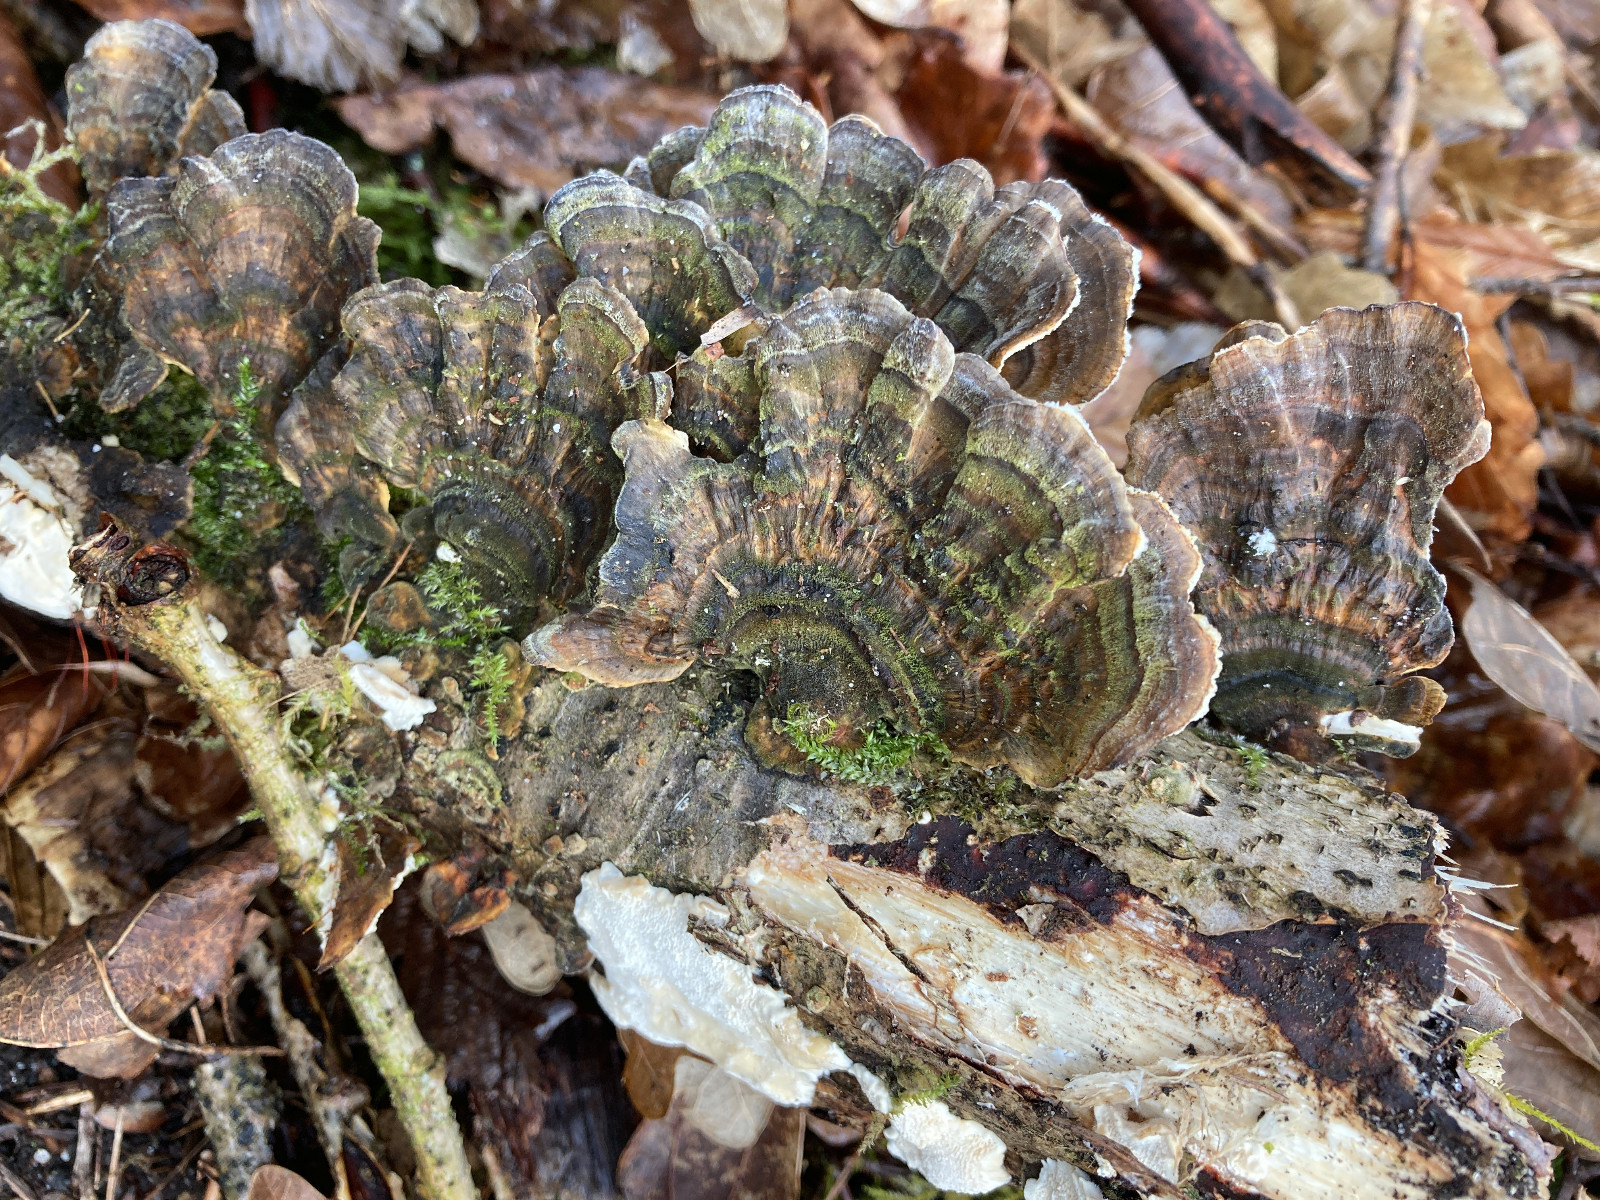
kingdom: Fungi
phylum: Basidiomycota
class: Agaricomycetes
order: Polyporales
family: Polyporaceae
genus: Trametes
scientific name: Trametes versicolor
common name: broget læderporesvamp
